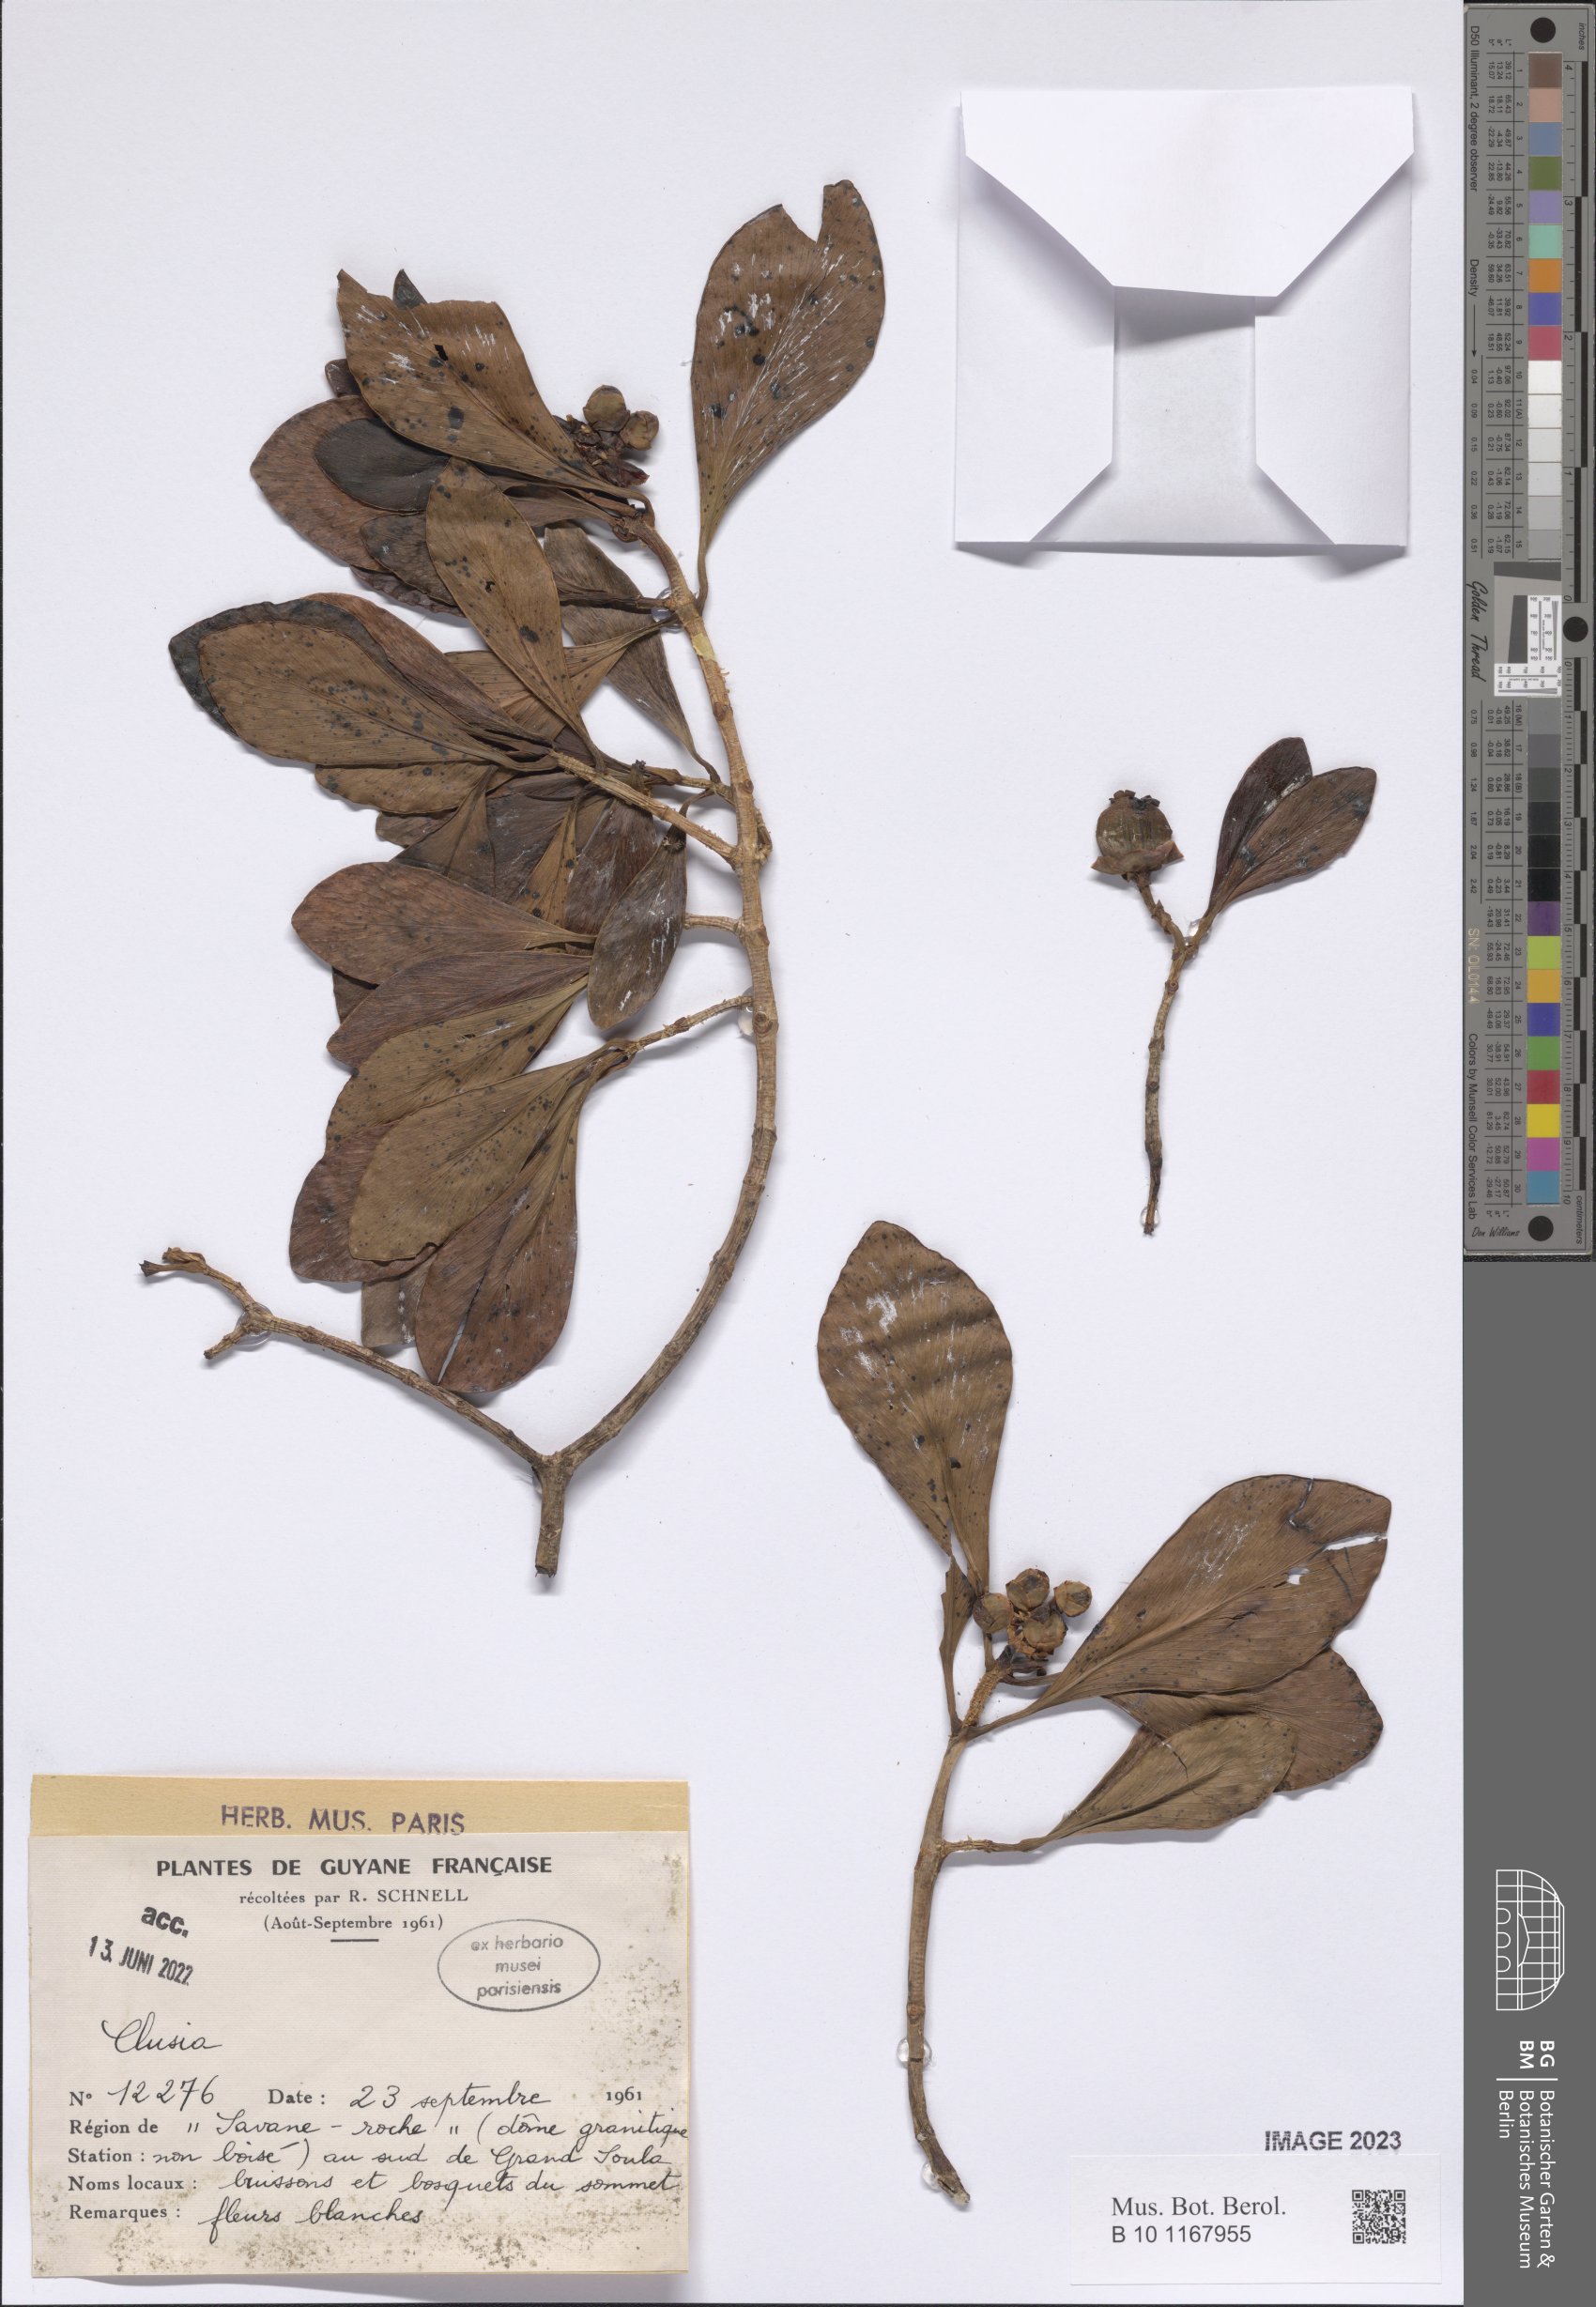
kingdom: Plantae
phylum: Tracheophyta
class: Magnoliopsida
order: Malpighiales
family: Clusiaceae
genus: Clusia
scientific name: Clusia
